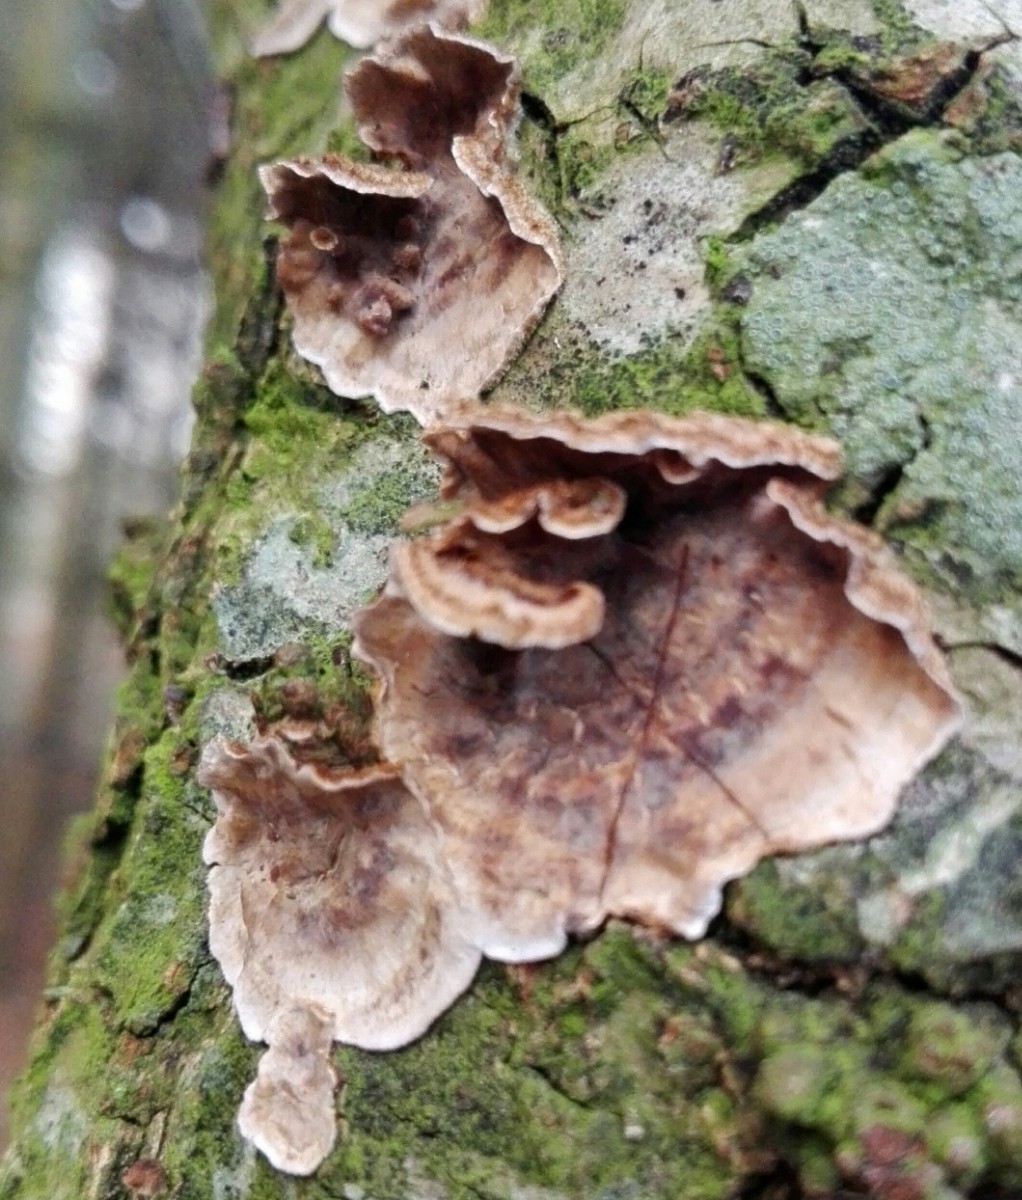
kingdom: Fungi
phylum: Basidiomycota
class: Agaricomycetes
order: Russulales
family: Stereaceae
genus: Stereum
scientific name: Stereum gausapatum
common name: tynd lædersvamp
